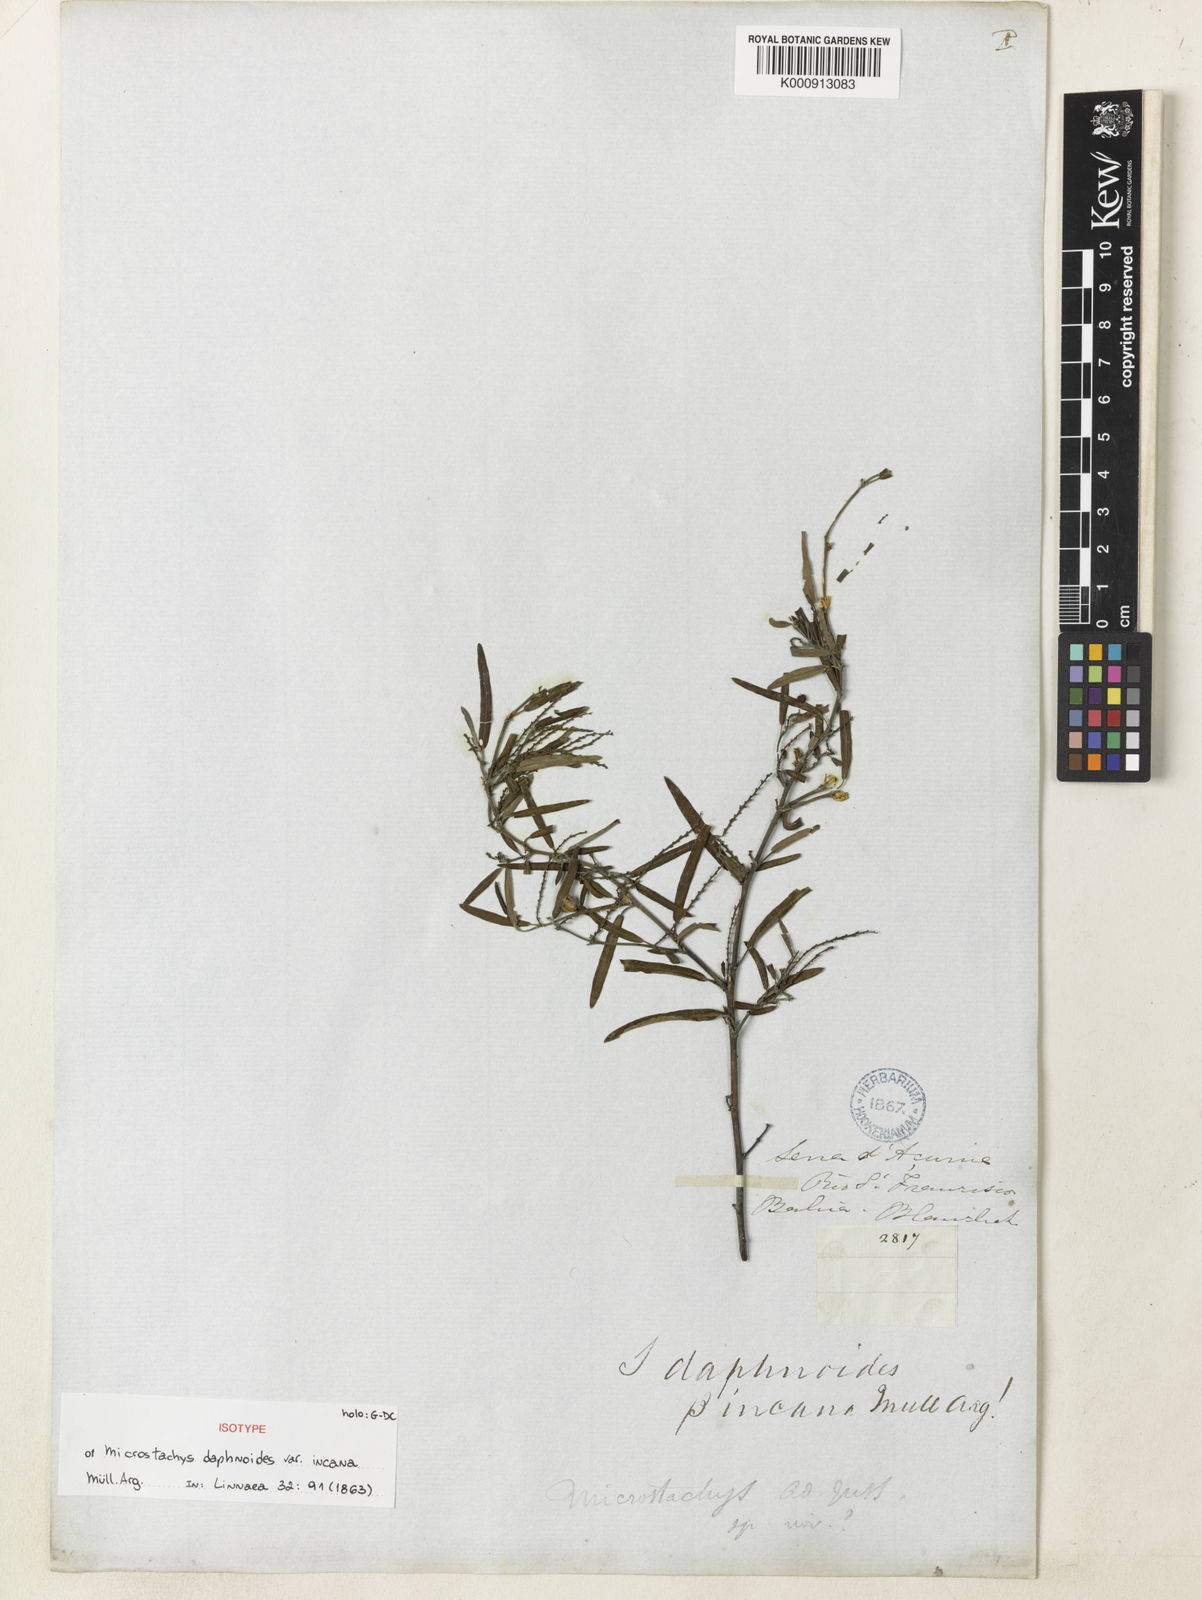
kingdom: Plantae
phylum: Tracheophyta
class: Magnoliopsida
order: Malpighiales
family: Euphorbiaceae
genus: Microstachys
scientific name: Microstachys
